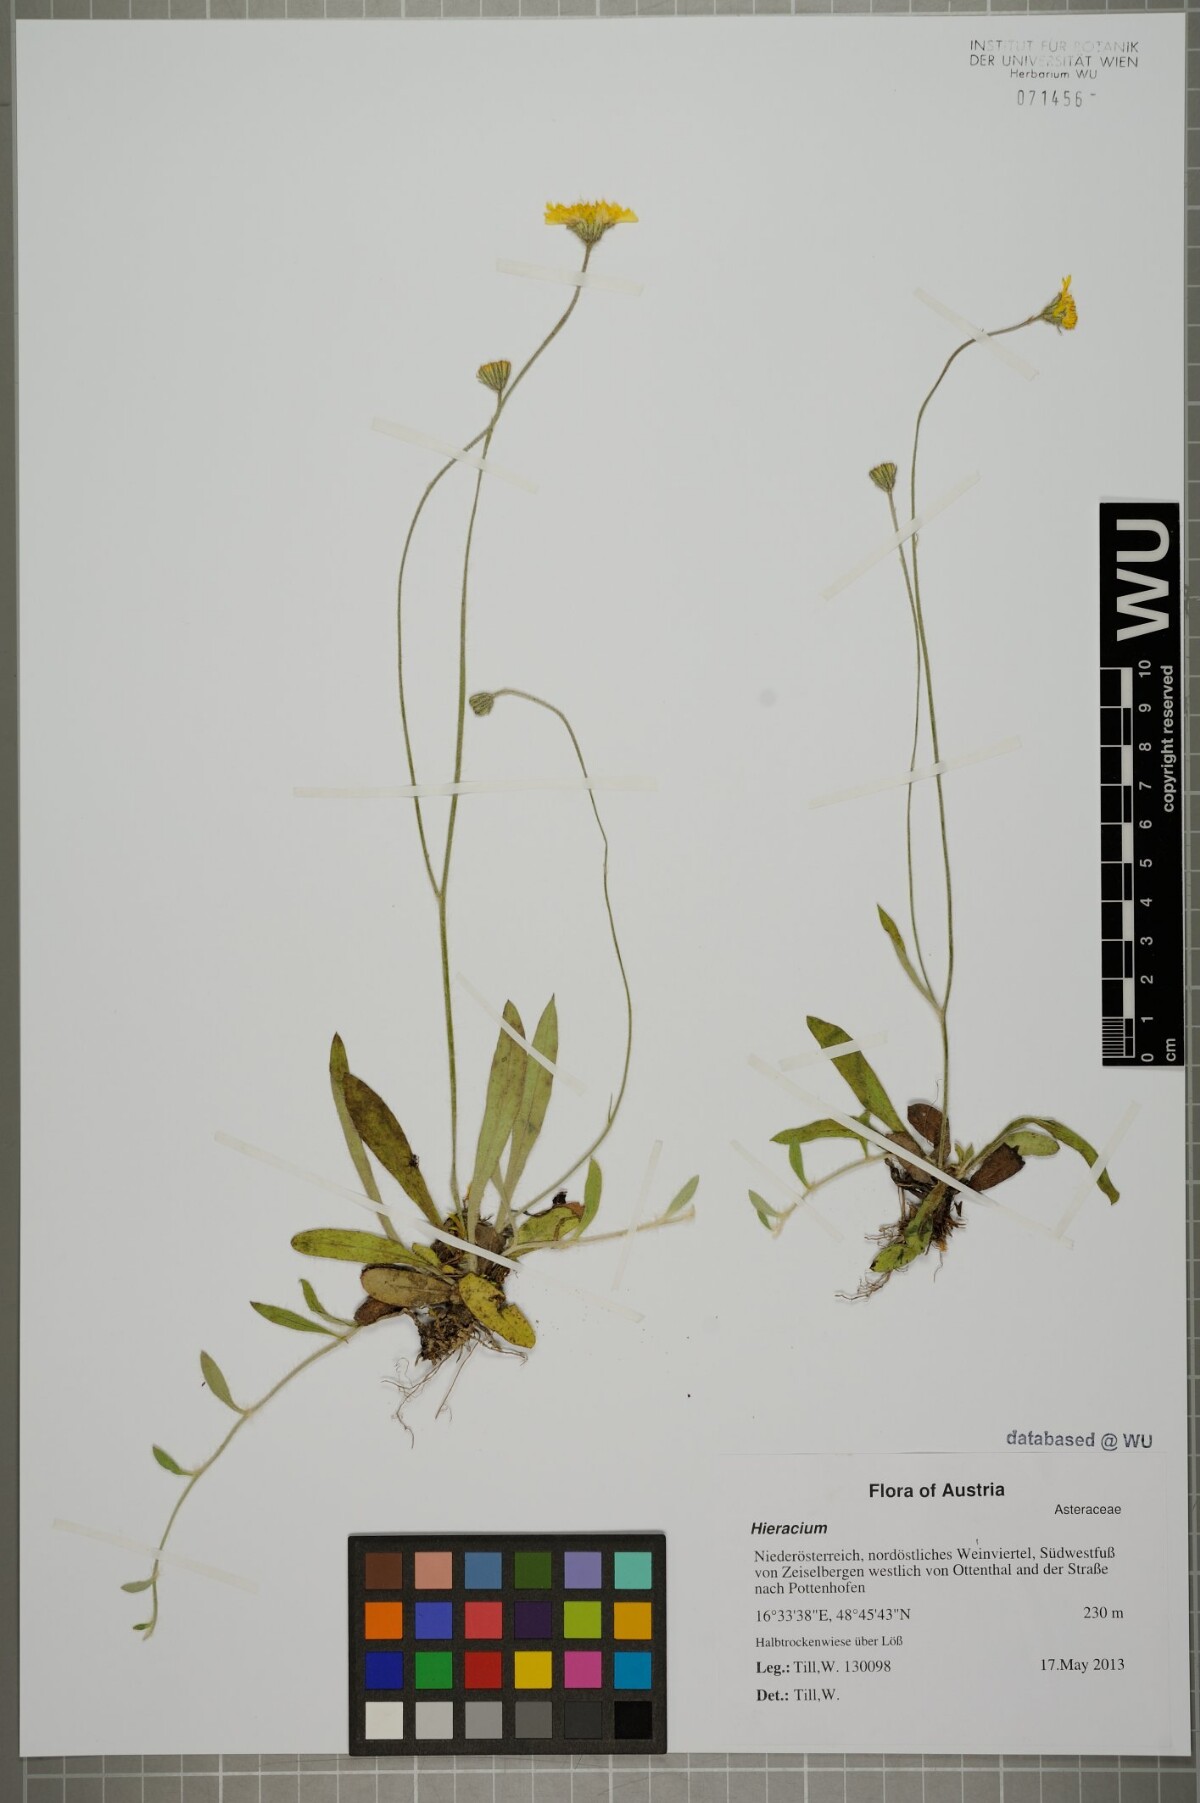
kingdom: Plantae
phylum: Tracheophyta
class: Magnoliopsida
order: Asterales
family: Asteraceae
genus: Hieracium
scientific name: Hieracium
